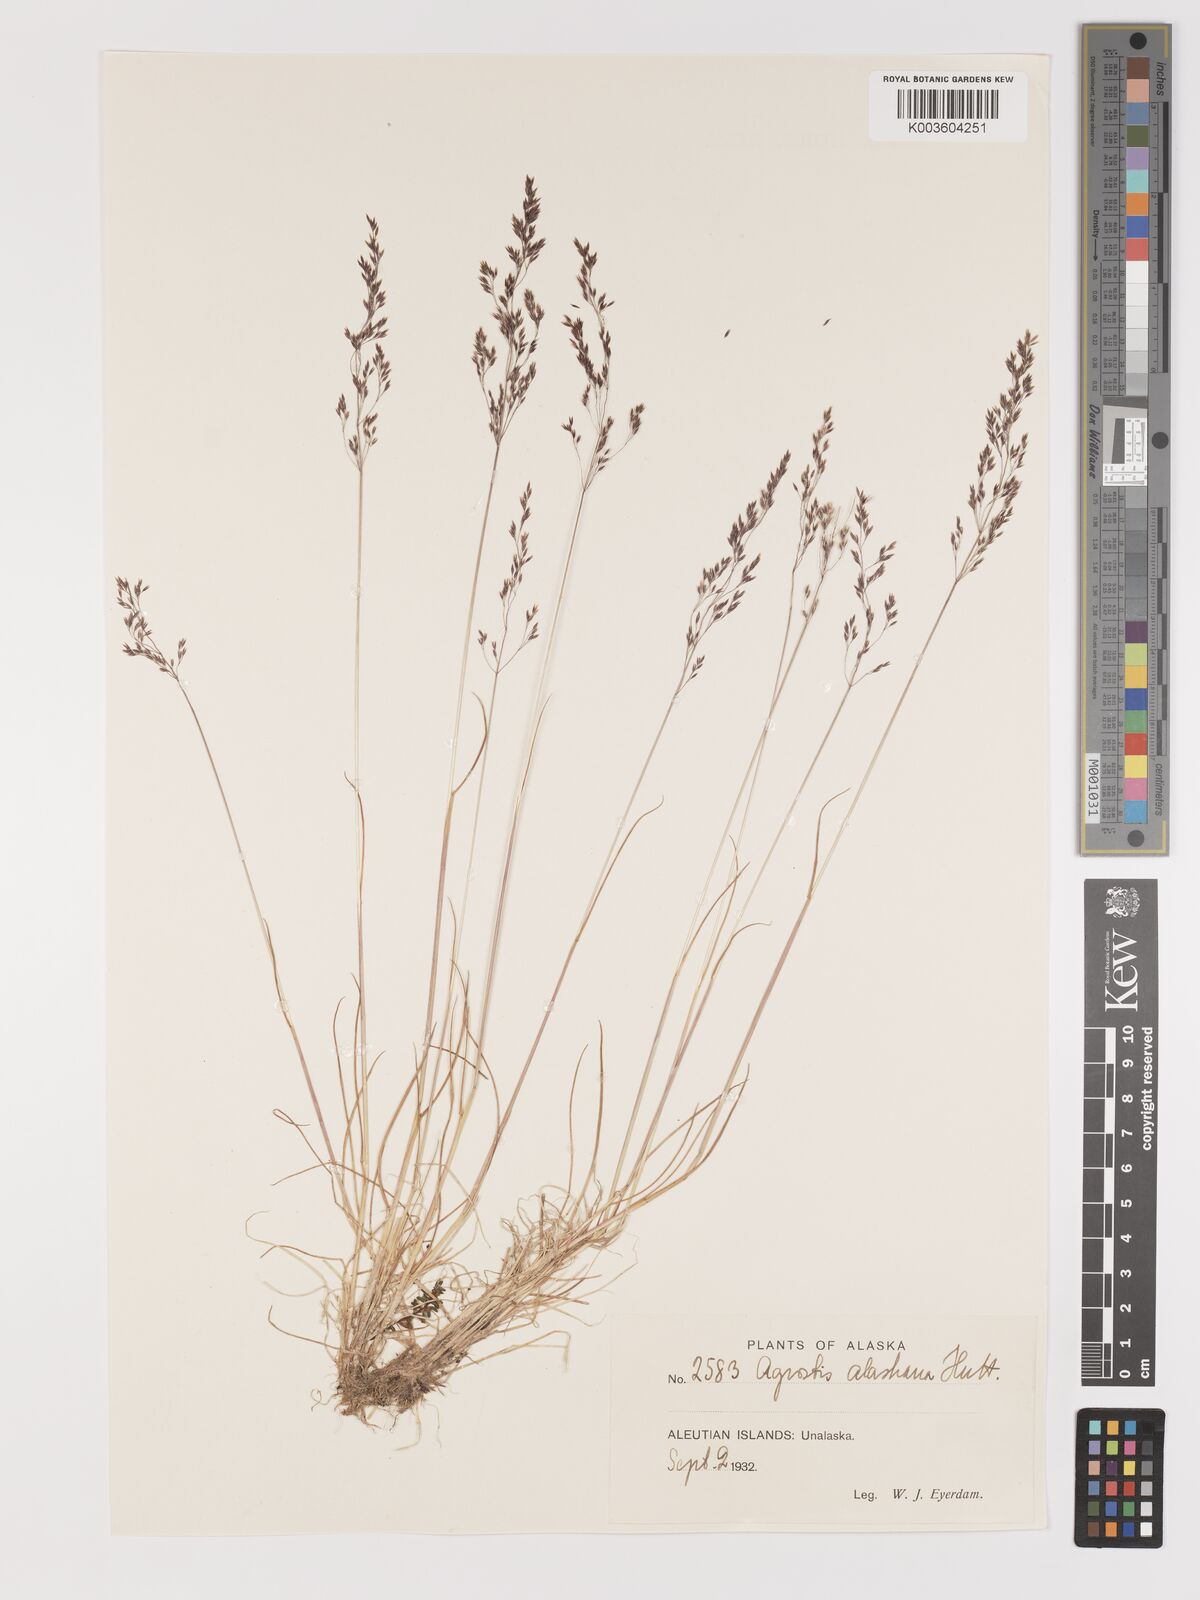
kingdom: Plantae
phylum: Tracheophyta
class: Liliopsida
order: Poales
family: Poaceae
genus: Agrostis
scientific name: Agrostis exarata
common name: Spike bent
